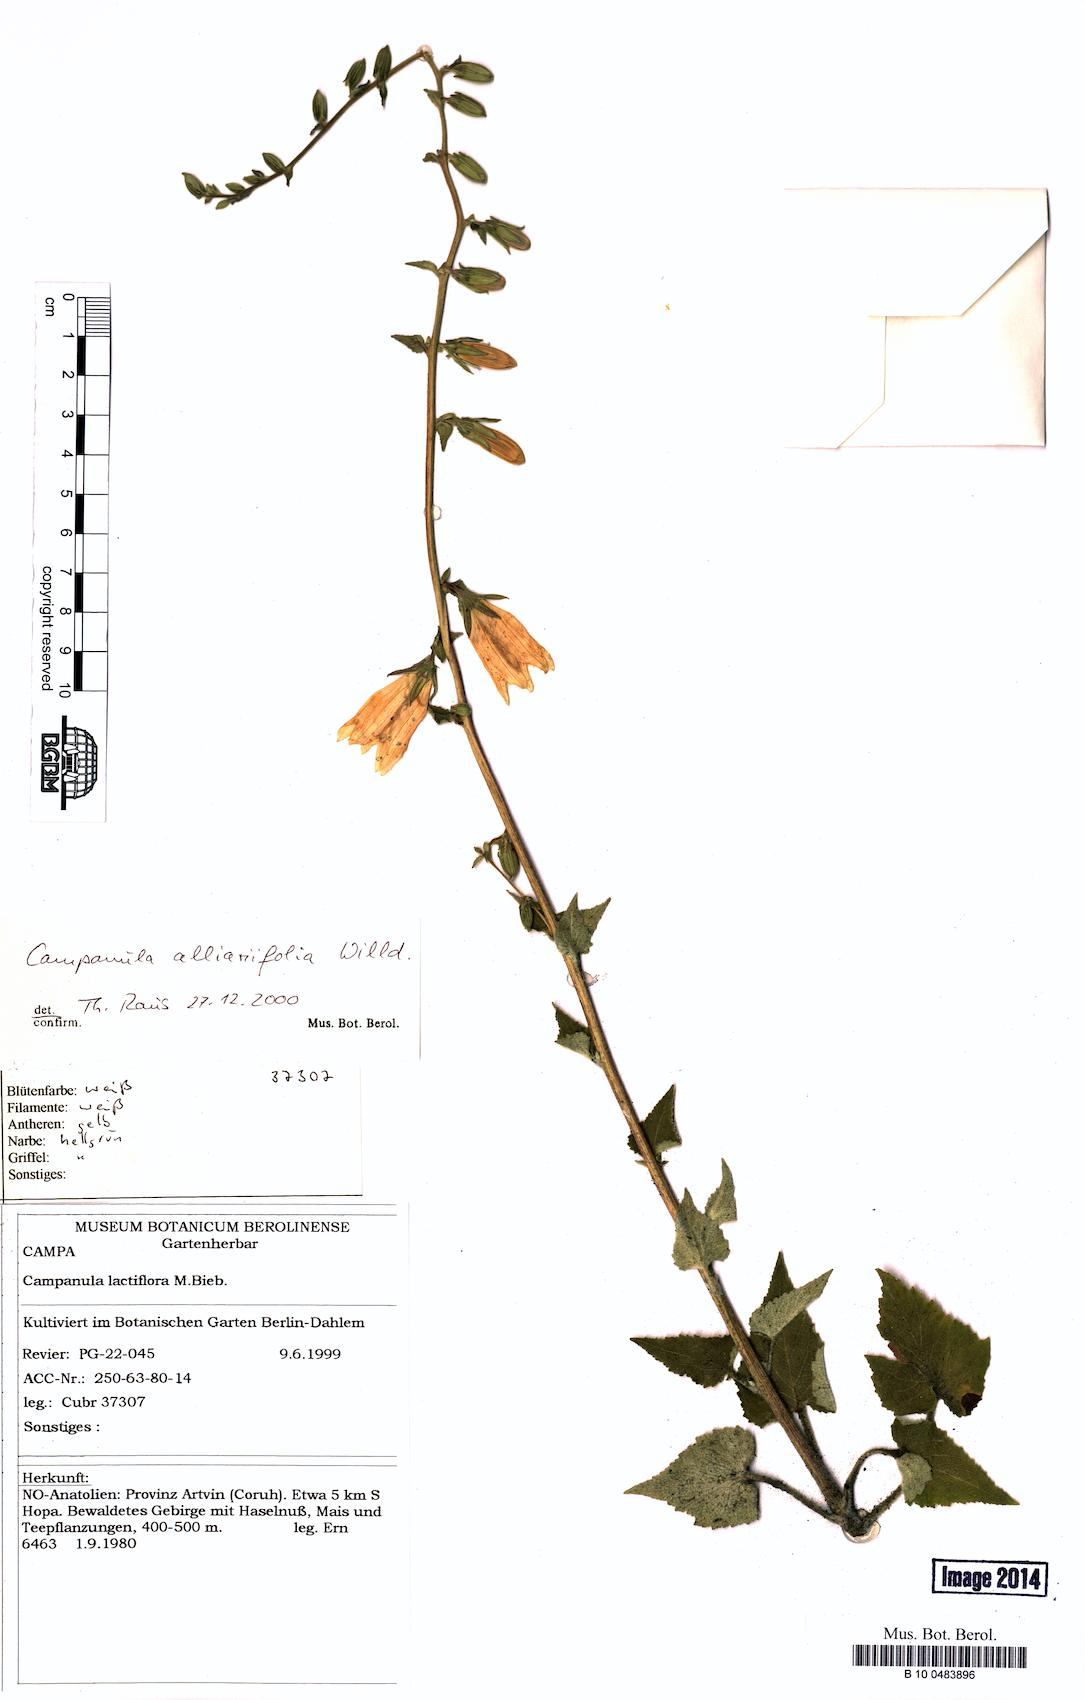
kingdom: Plantae
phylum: Tracheophyta
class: Magnoliopsida
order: Asterales
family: Campanulaceae
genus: Campanula
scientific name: Campanula alliariifolia
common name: Cornish bellflower
